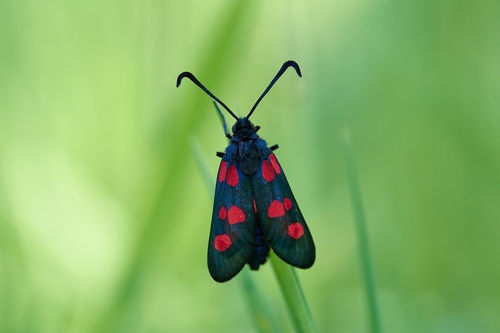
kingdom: Animalia
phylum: Arthropoda
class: Insecta
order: Lepidoptera
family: Zygaenidae
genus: Zygaena
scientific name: Zygaena trifolii
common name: Five-spot burnet
